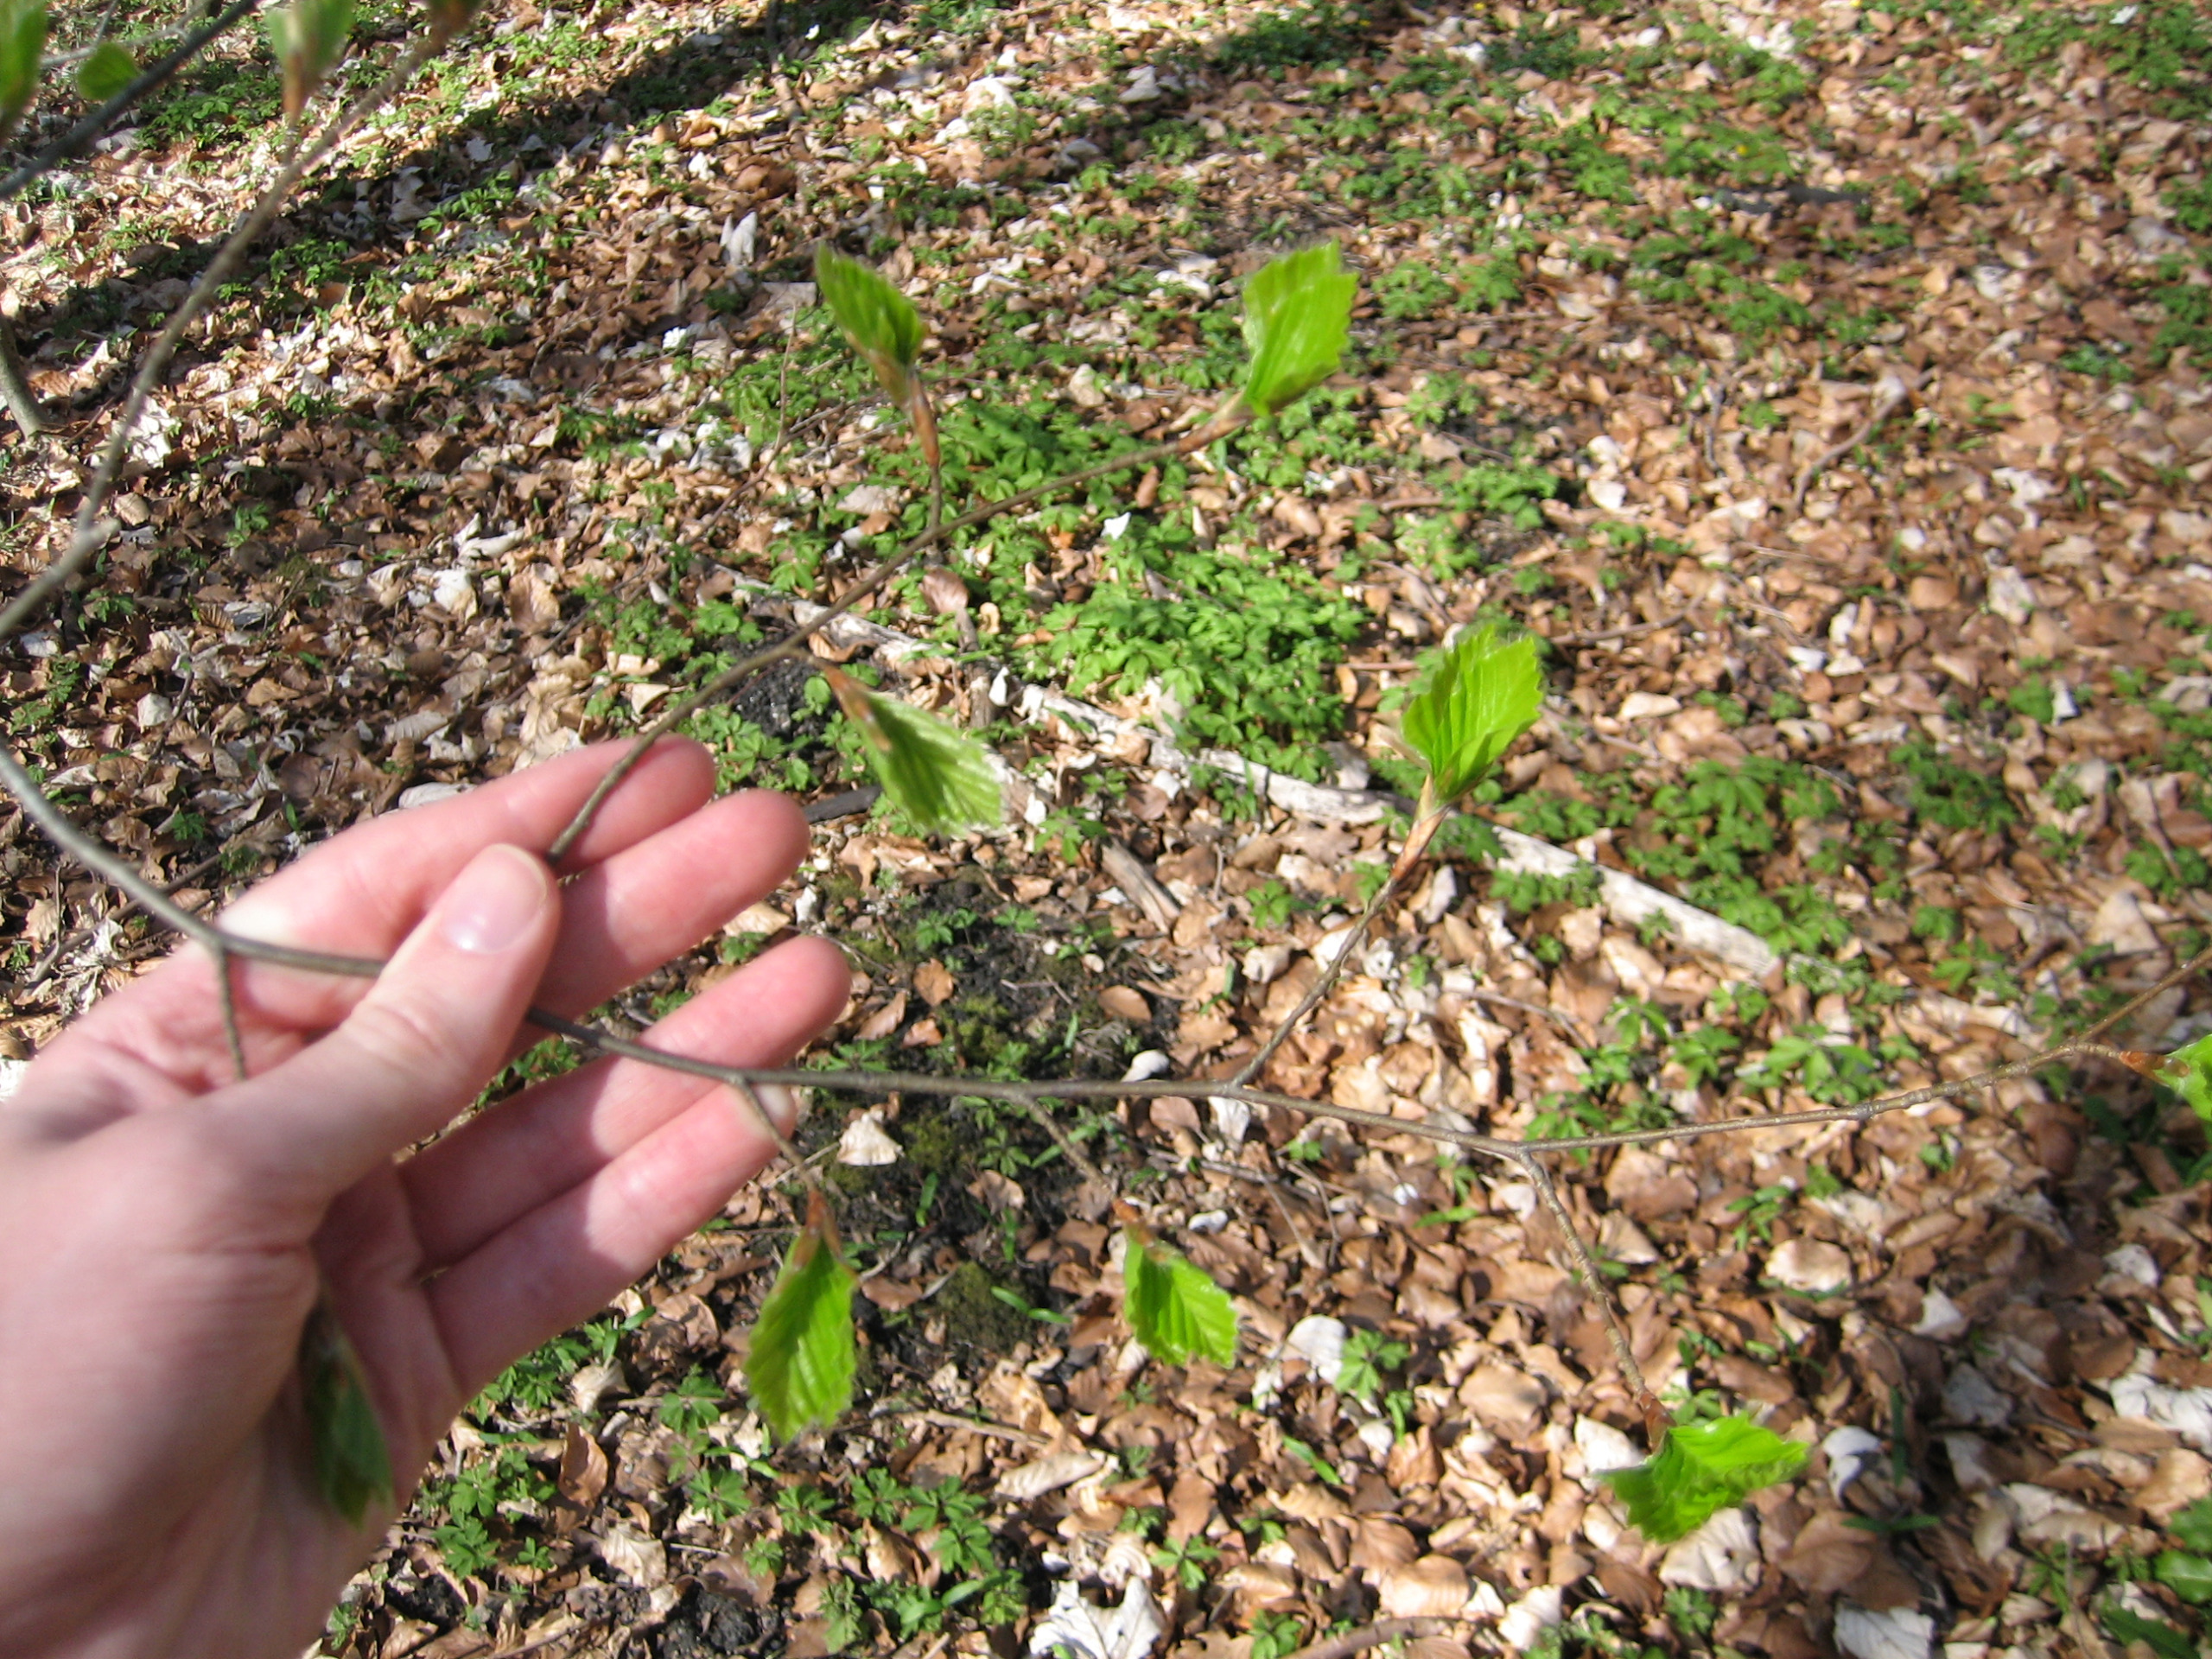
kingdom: Plantae
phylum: Tracheophyta
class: Magnoliopsida
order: Fagales
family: Fagaceae
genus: Fagus
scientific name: Fagus sylvatica
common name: Bøg
